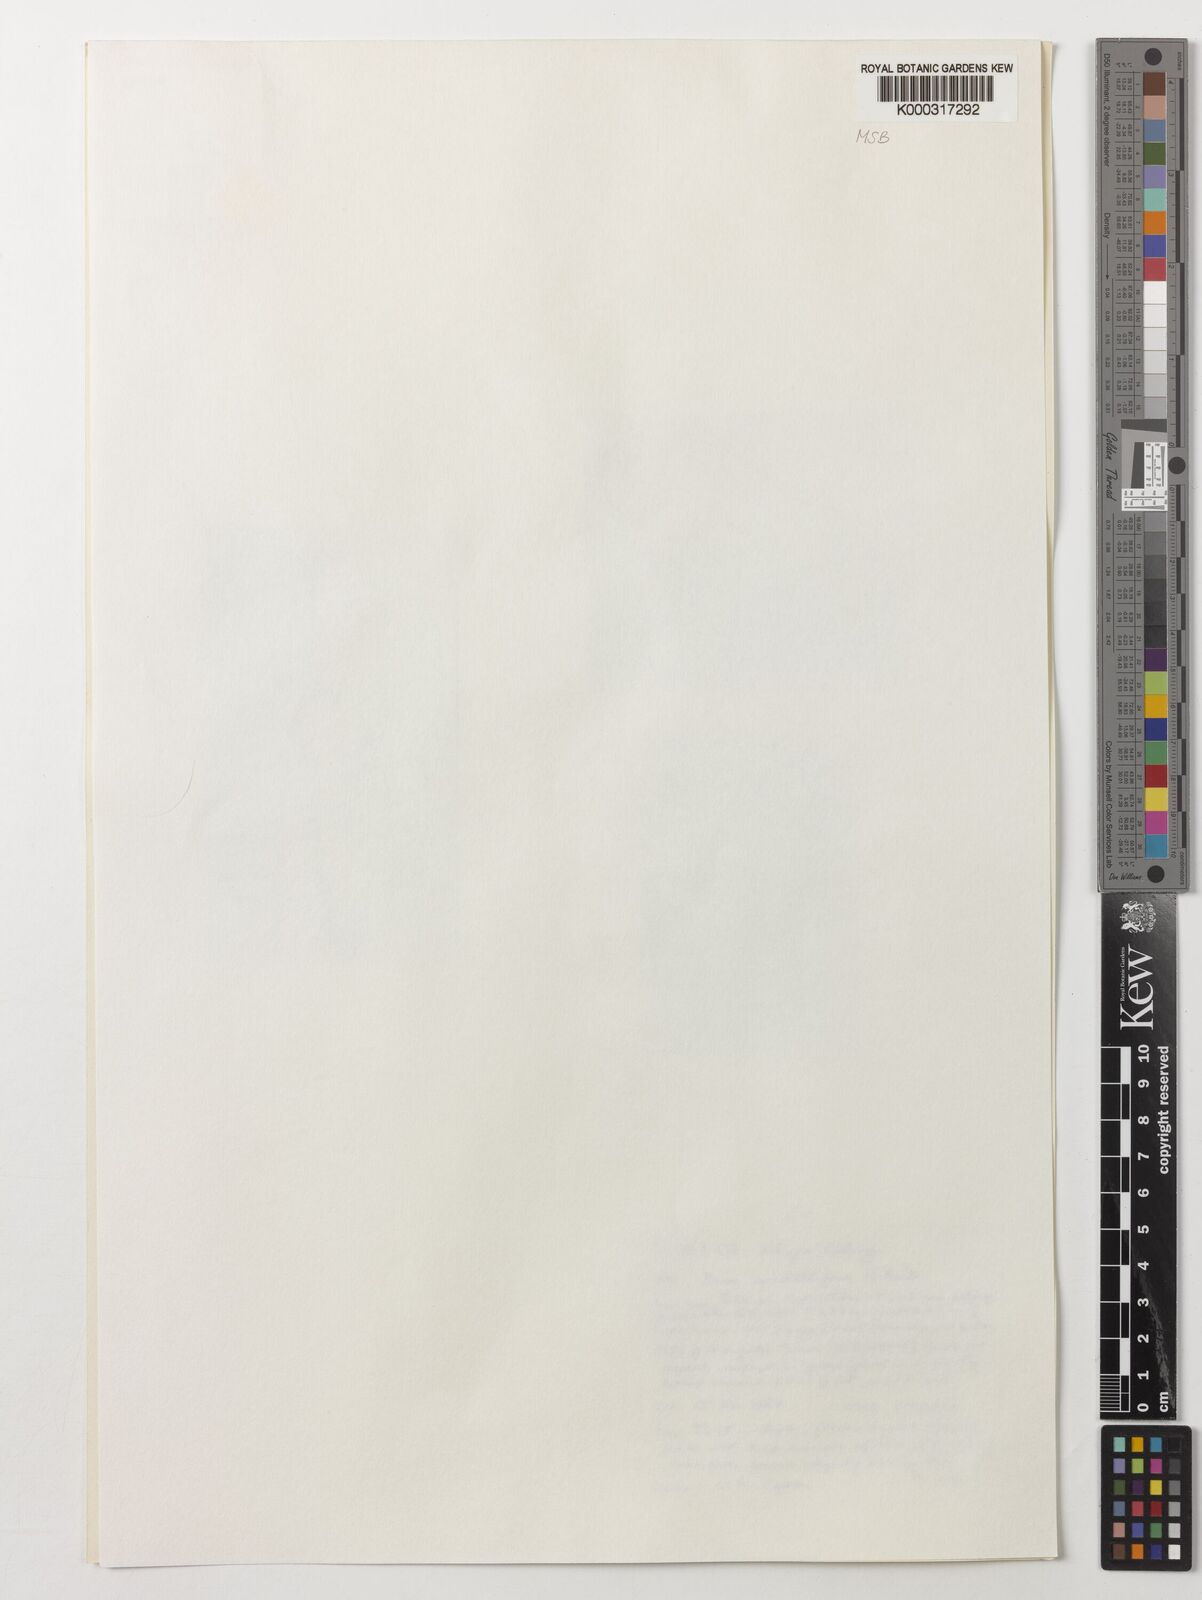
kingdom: Plantae
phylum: Tracheophyta
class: Liliopsida
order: Asparagales
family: Orchidaceae
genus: Disa
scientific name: Disa scutellifera
